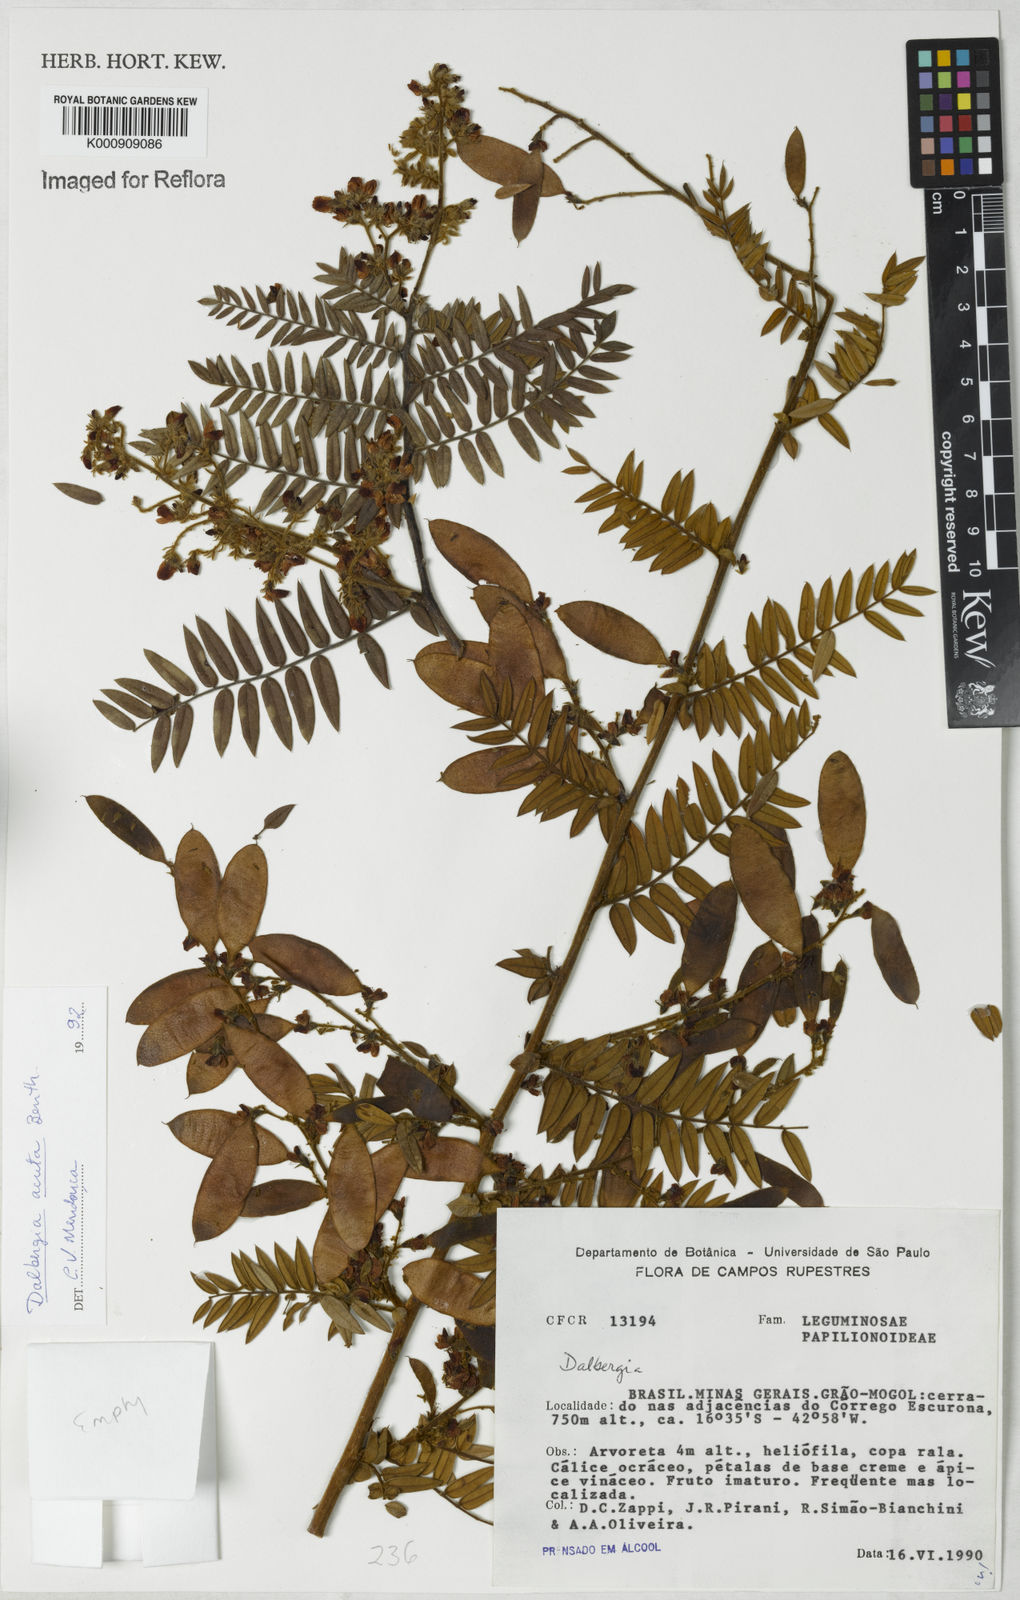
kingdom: Plantae
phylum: Tracheophyta
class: Magnoliopsida
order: Fabales
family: Fabaceae
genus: Dalbergia
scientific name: Dalbergia acuta
